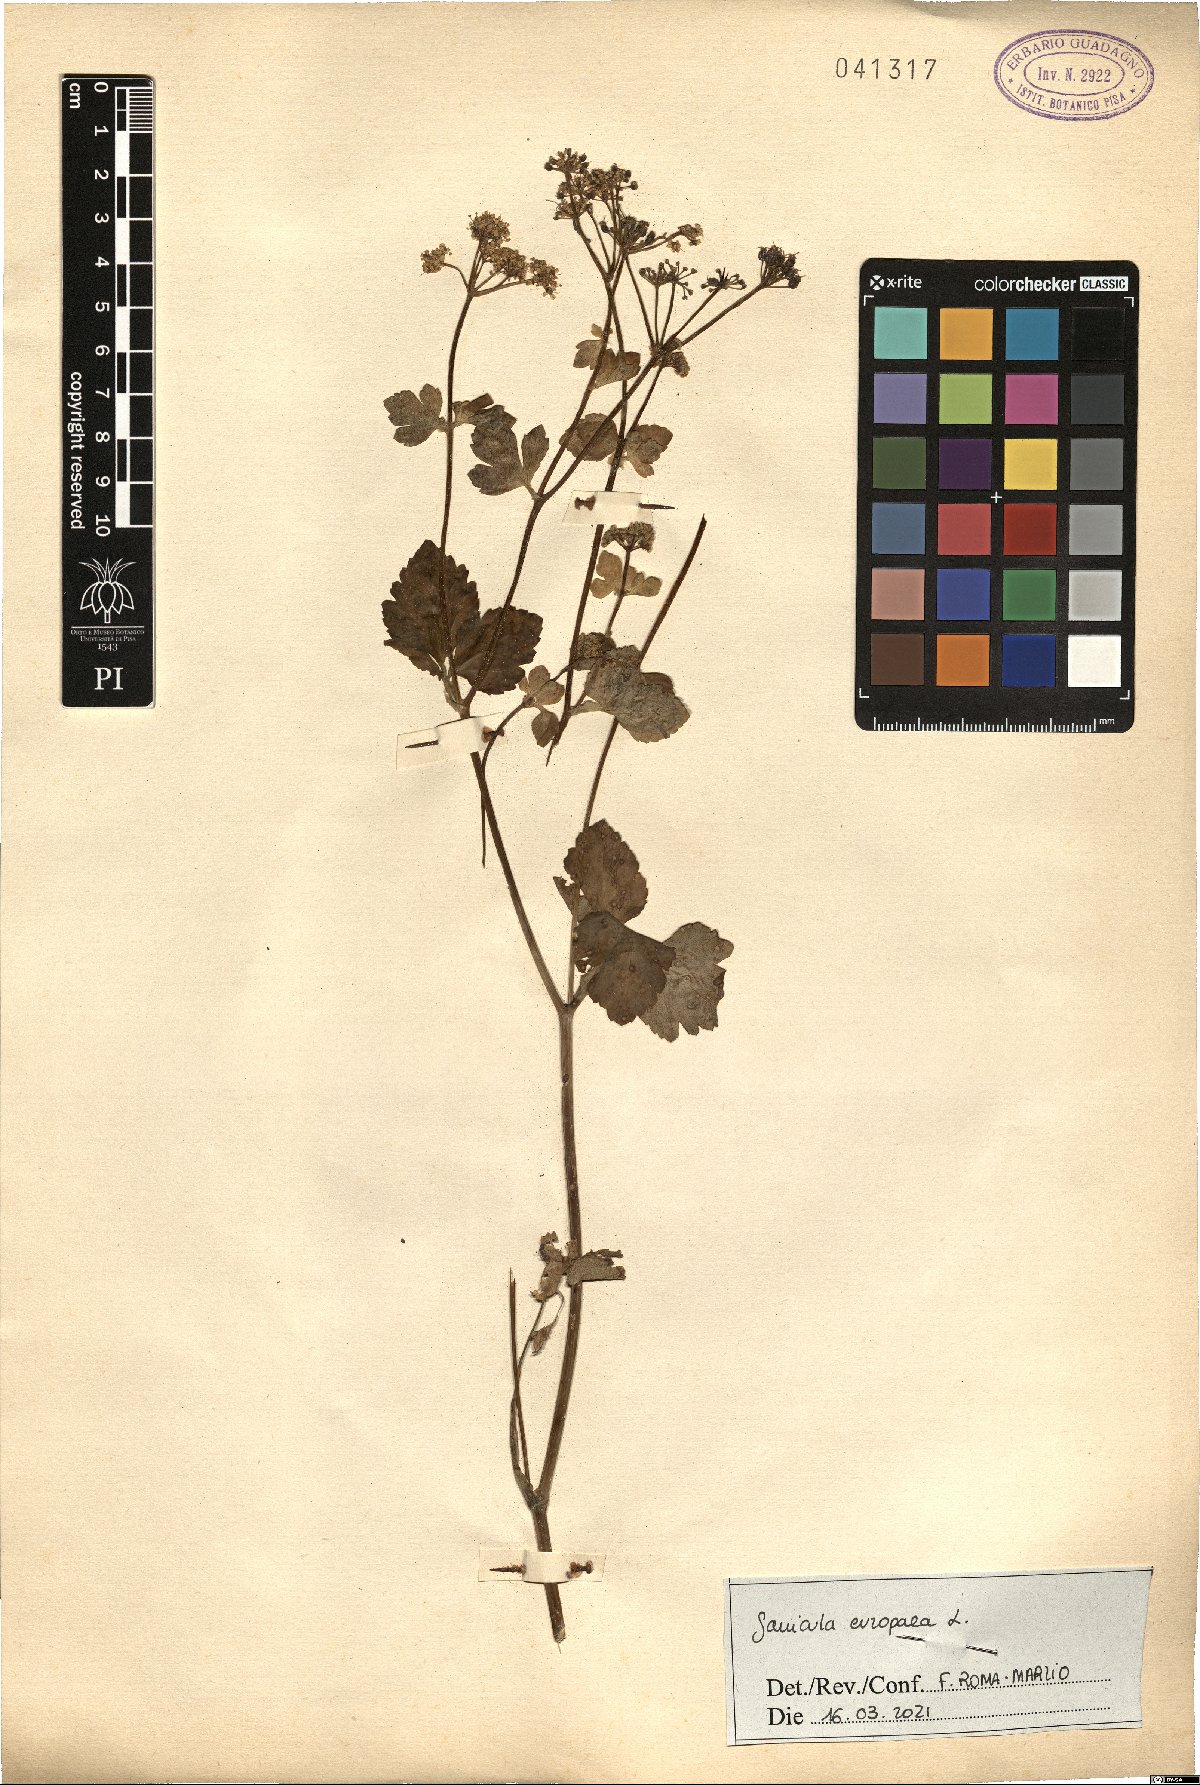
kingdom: Plantae
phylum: Tracheophyta
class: Magnoliopsida
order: Apiales
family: Apiaceae
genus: Sanicula
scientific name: Sanicula europaea
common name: Sanicle
